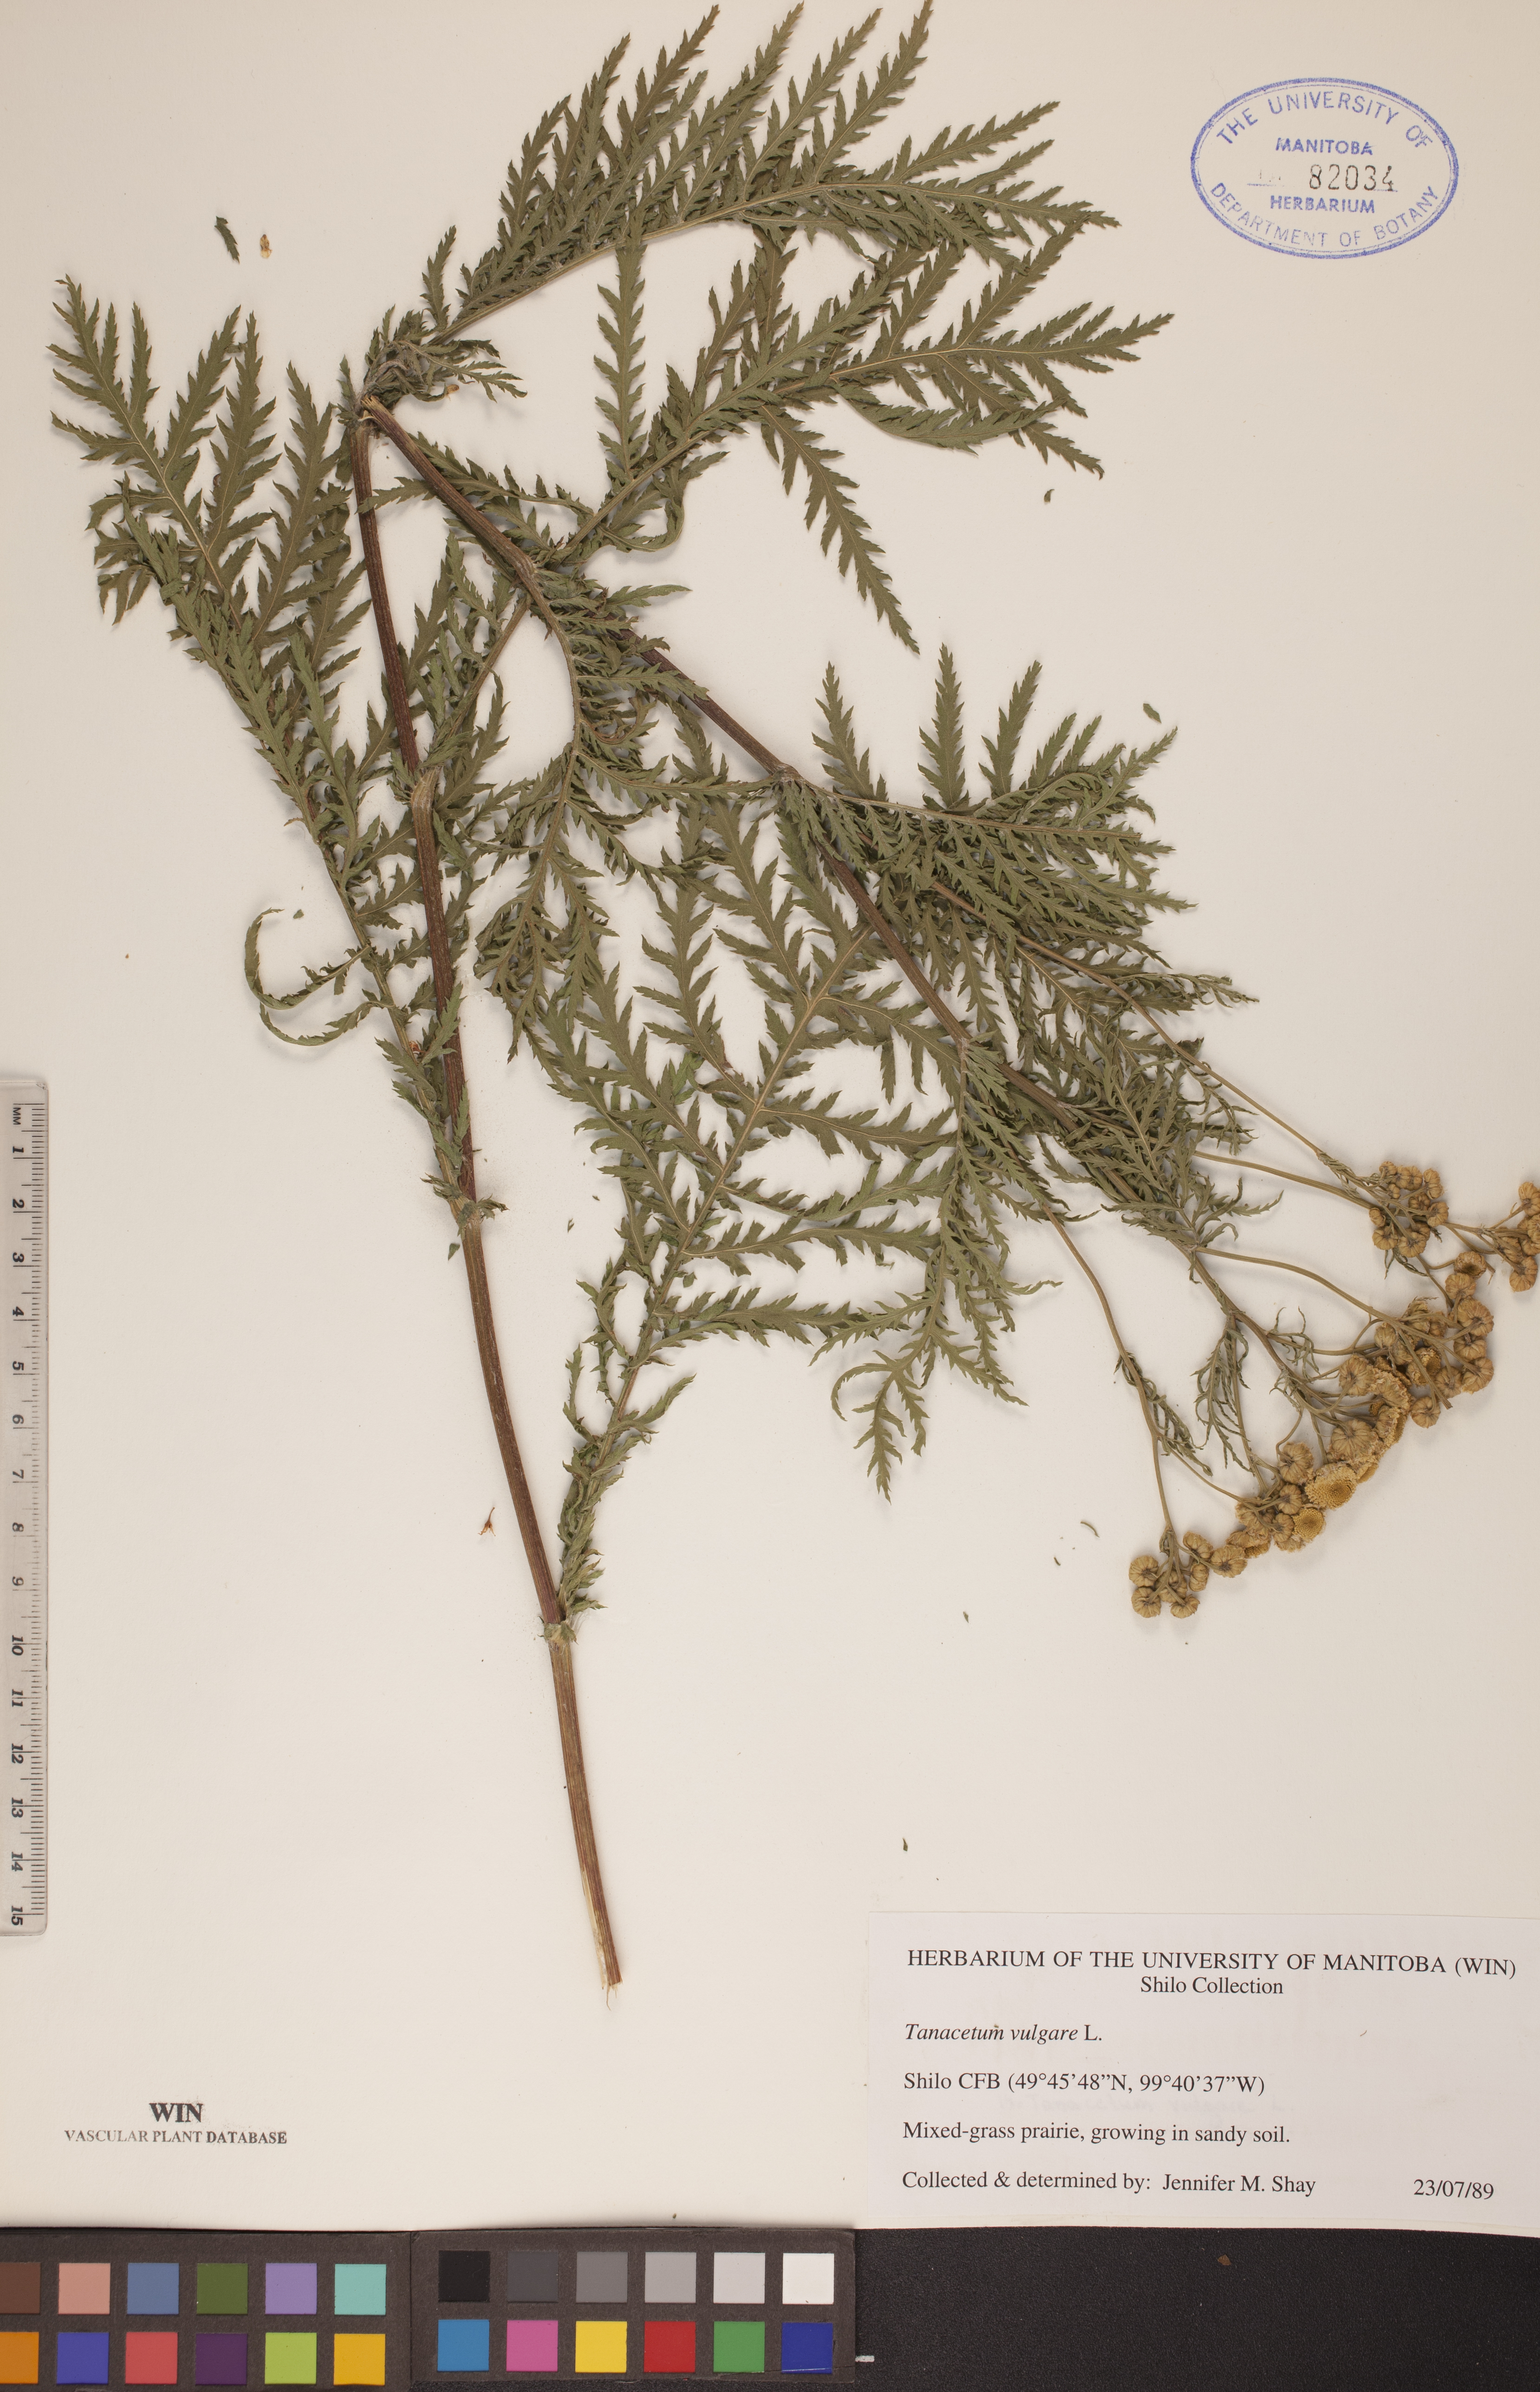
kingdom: Plantae
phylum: Tracheophyta
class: Magnoliopsida
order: Asterales
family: Asteraceae
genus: Tanacetum
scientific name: Tanacetum vulgare
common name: Common tansy
